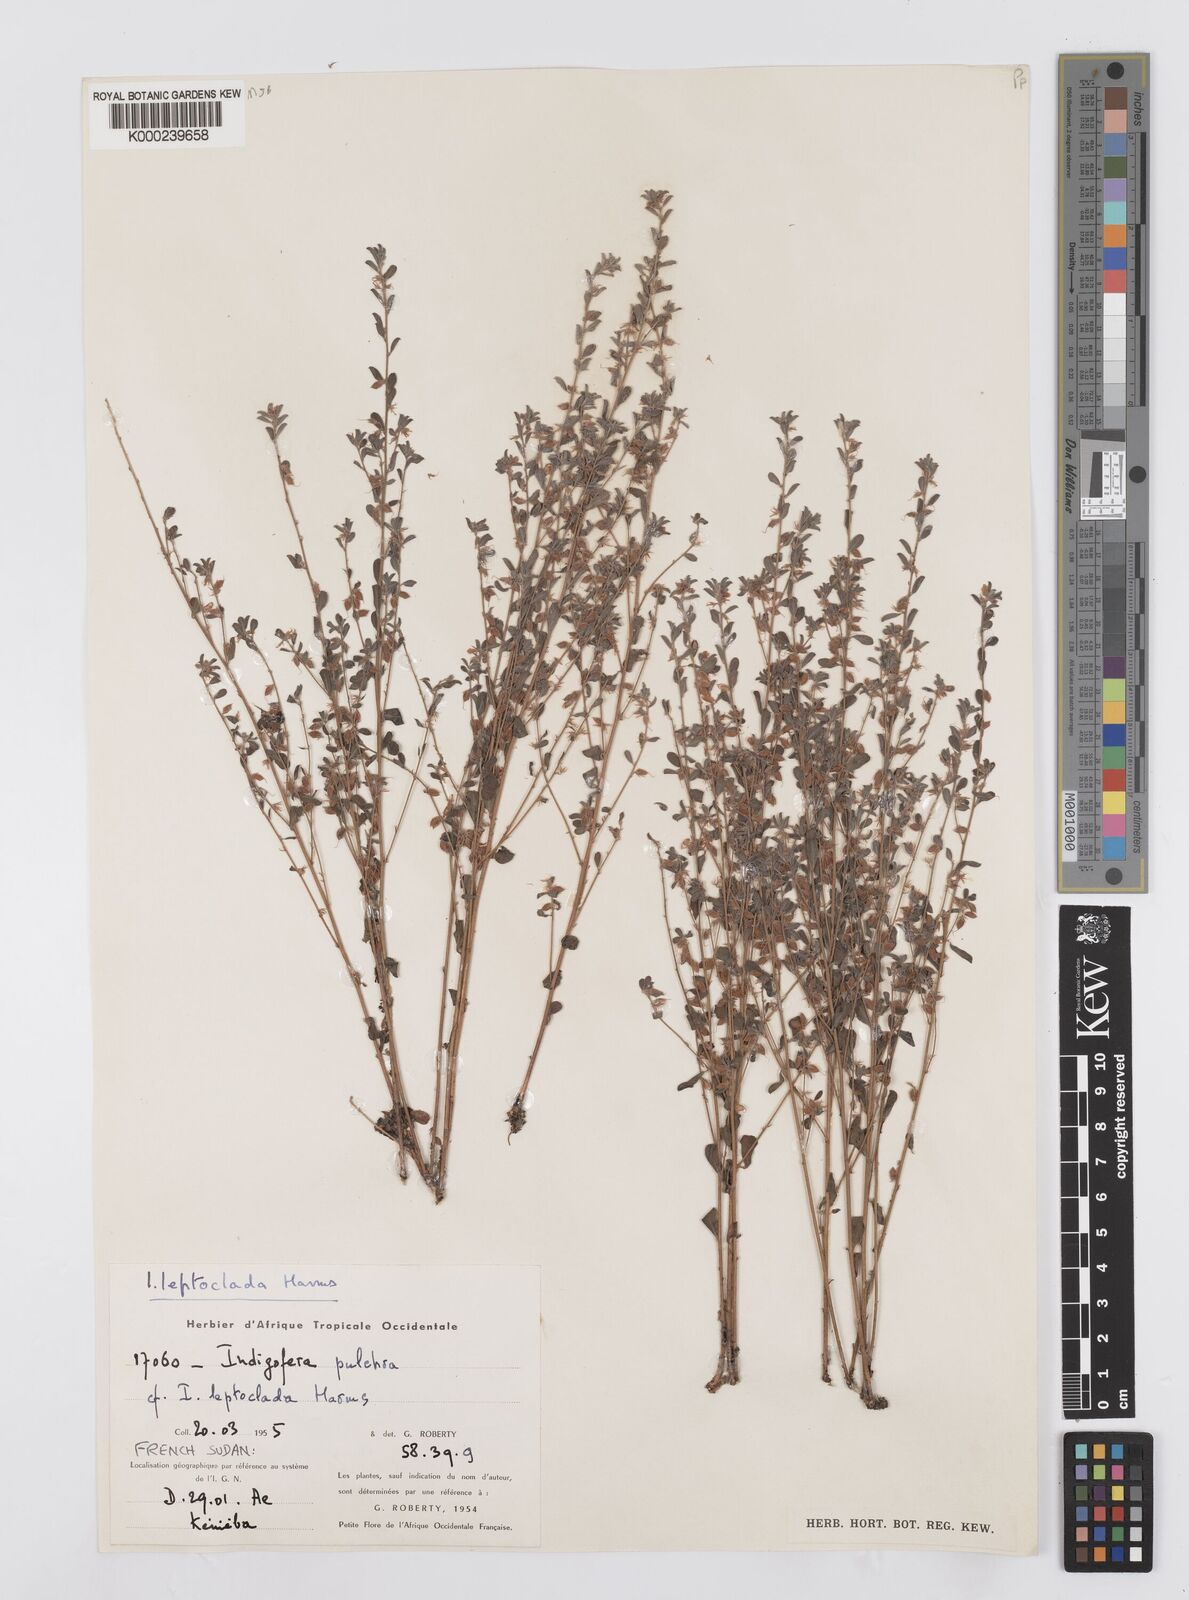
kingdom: Plantae
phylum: Tracheophyta
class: Magnoliopsida
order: Fabales
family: Fabaceae
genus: Indigofera
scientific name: Indigofera leptoclada
